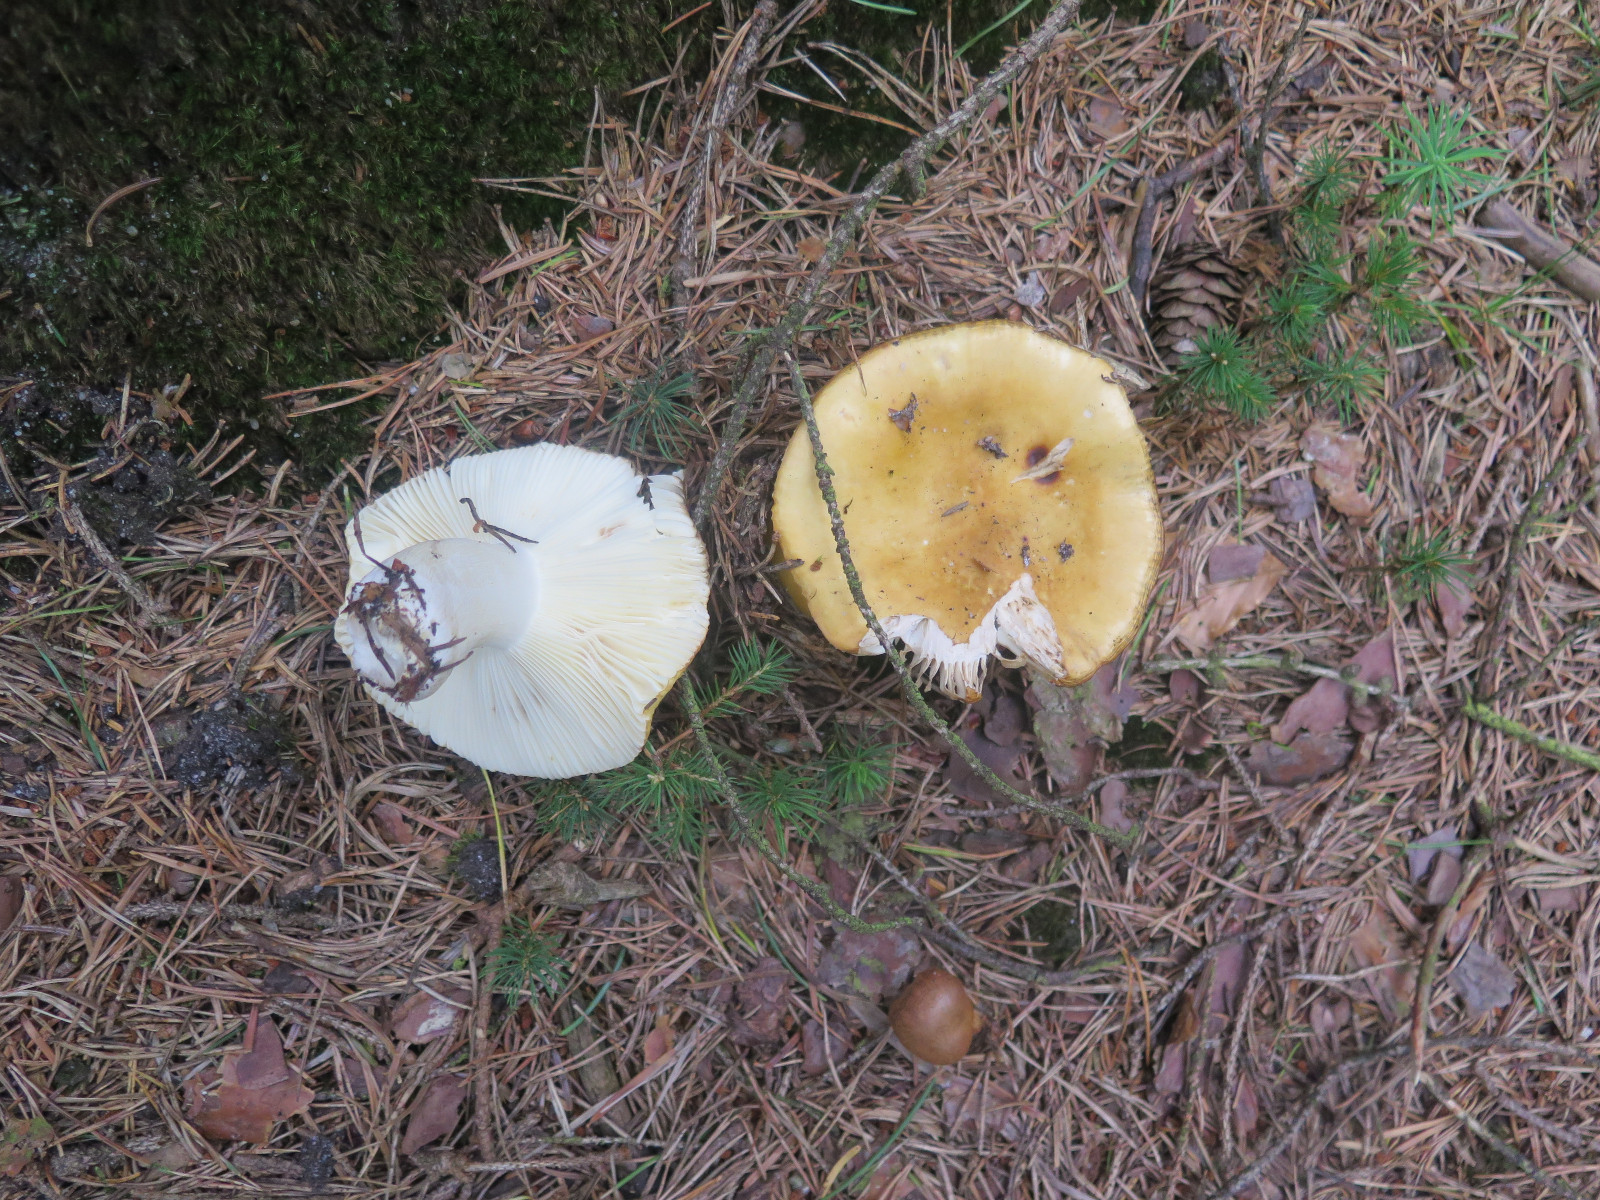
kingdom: Fungi
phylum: Basidiomycota
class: Agaricomycetes
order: Russulales
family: Russulaceae
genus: Russula
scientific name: Russula ochroleuca
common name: okkergul skørhat
